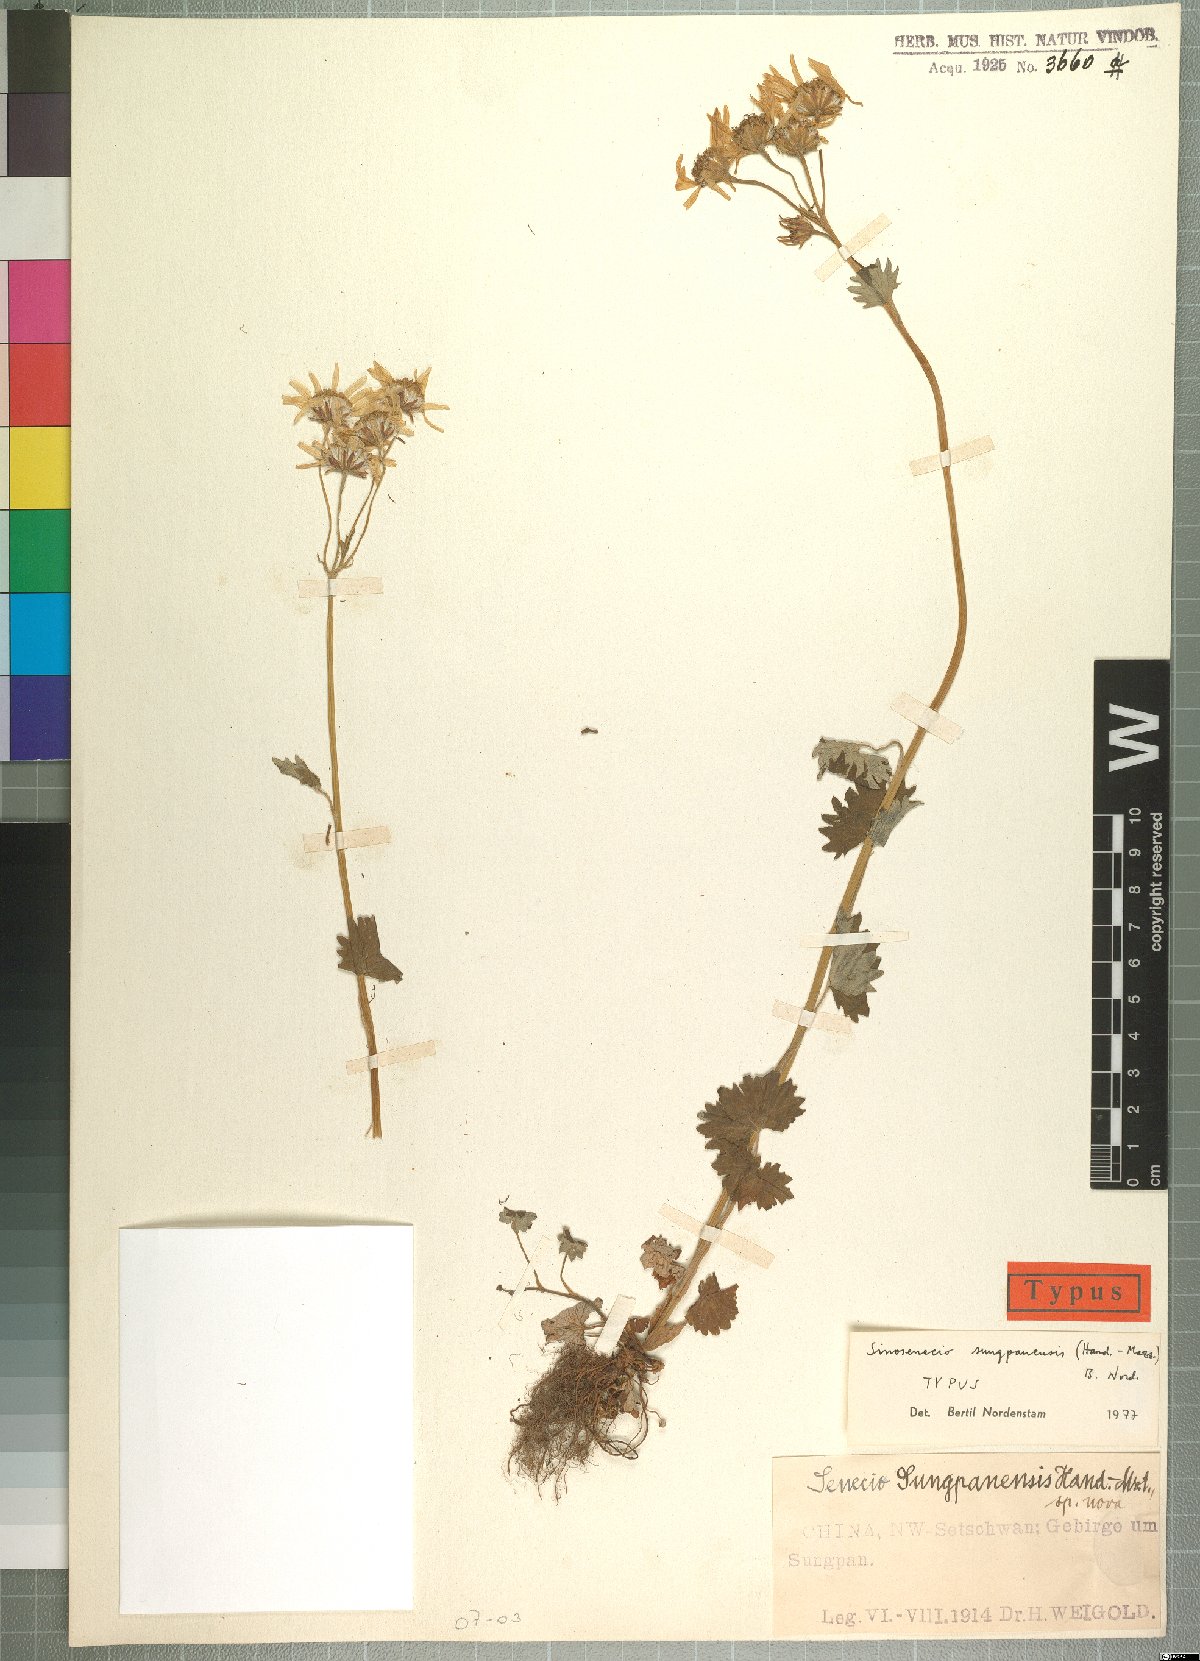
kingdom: Plantae
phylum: Tracheophyta
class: Magnoliopsida
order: Asterales
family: Asteraceae
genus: Sinosenecio
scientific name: Sinosenecio sungpanensis
